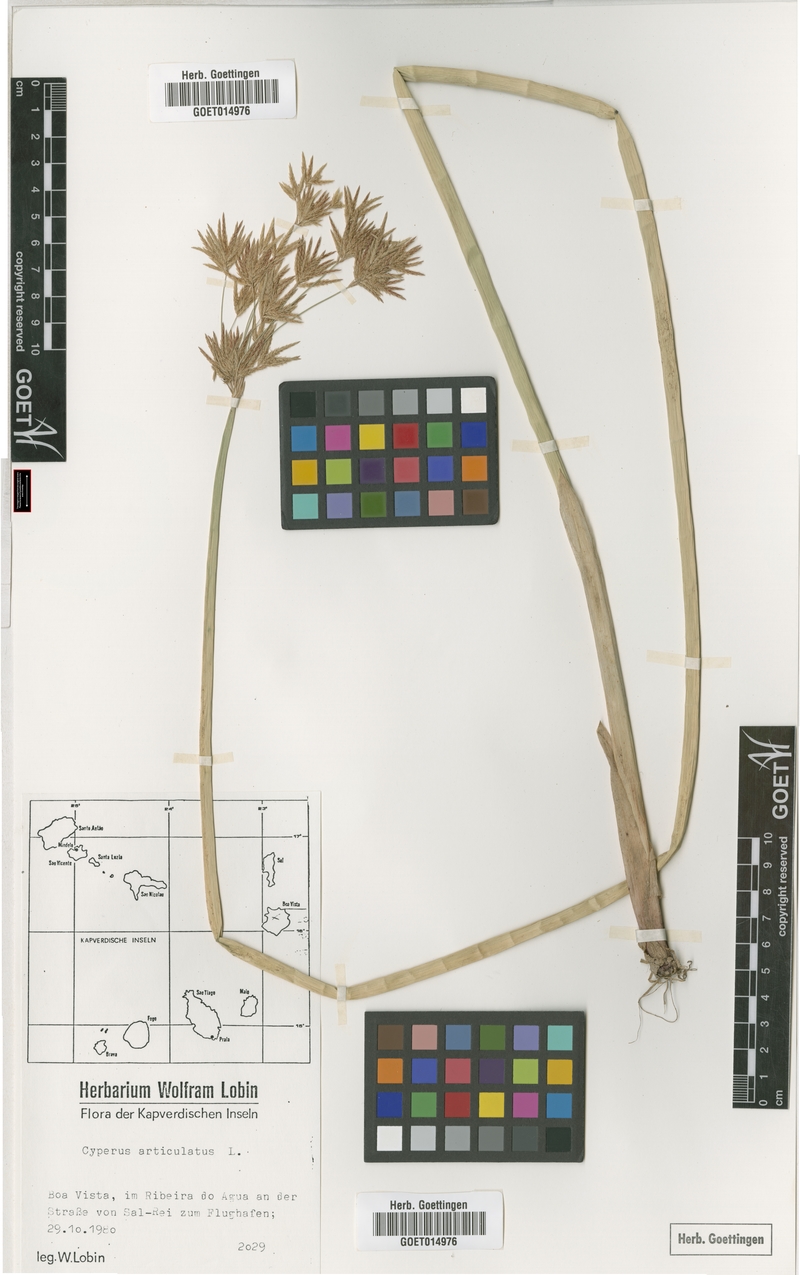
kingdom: Plantae
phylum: Tracheophyta
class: Liliopsida
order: Poales
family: Cyperaceae
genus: Cyperus
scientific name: Cyperus articulatus
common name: Jointed flatsedge
